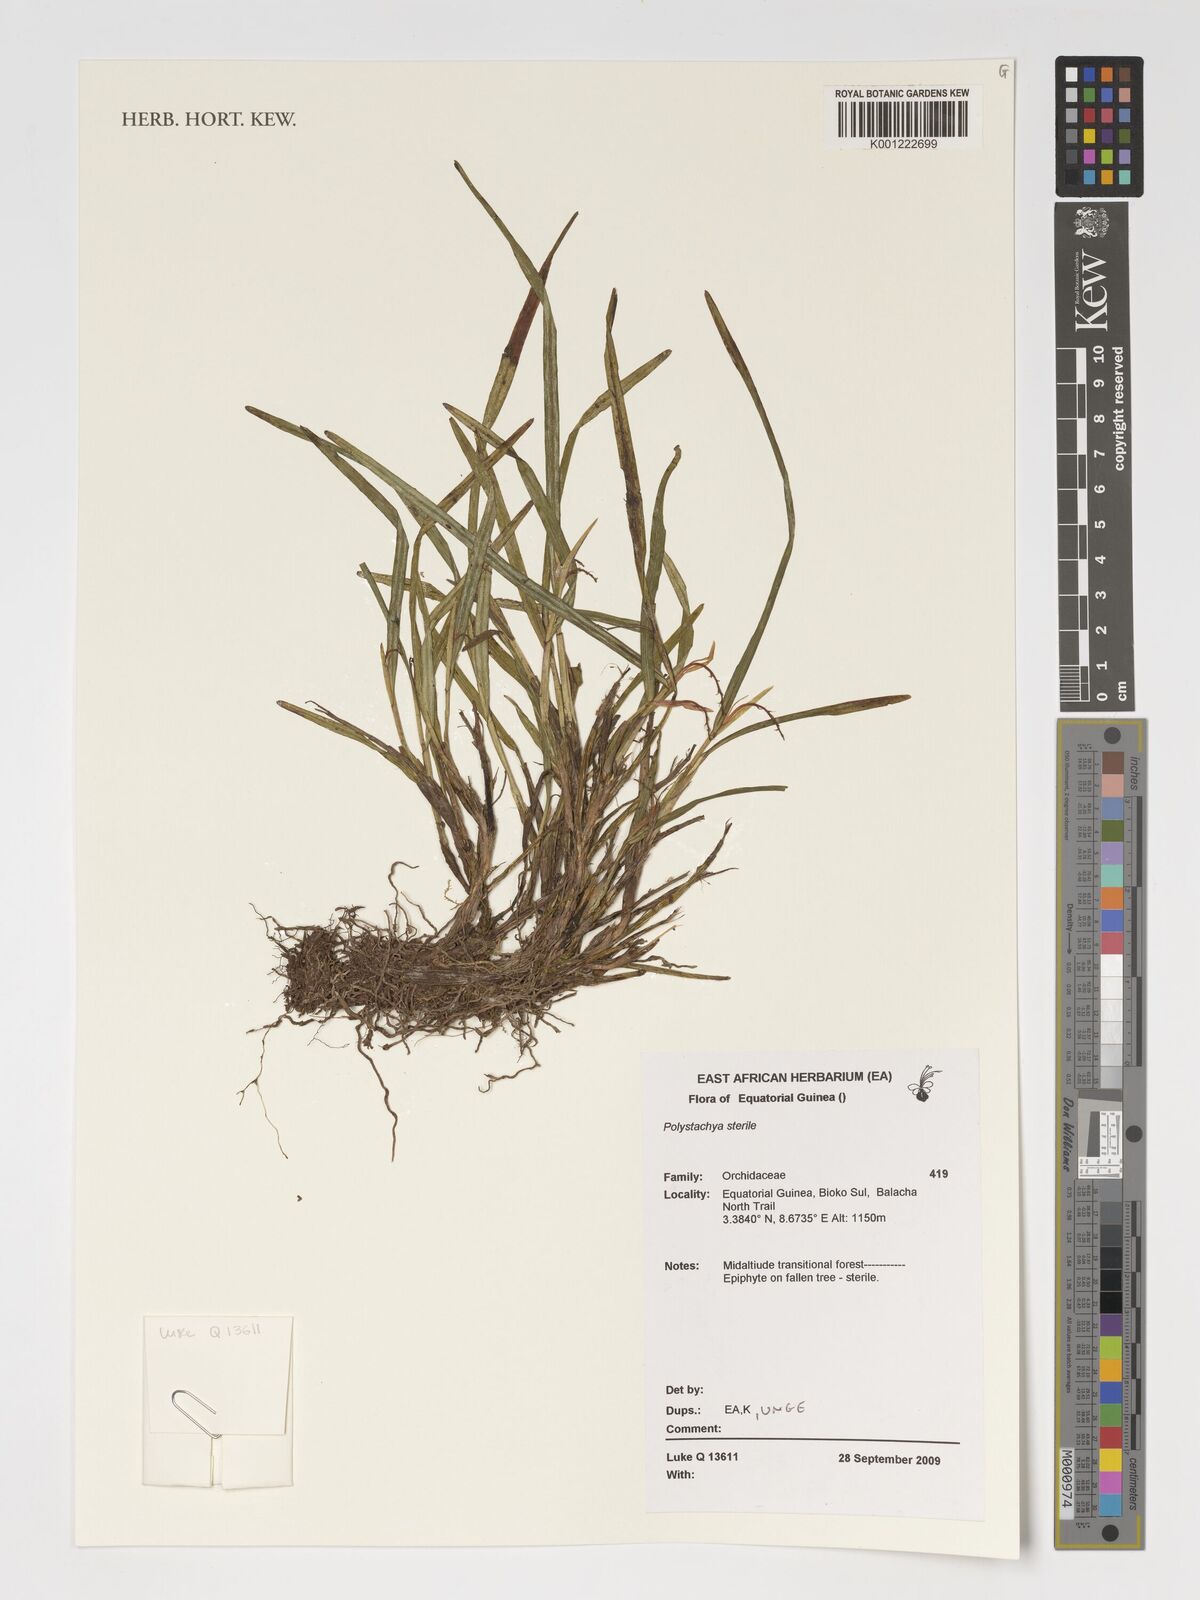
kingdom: Plantae
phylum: Tracheophyta
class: Liliopsida
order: Asparagales
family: Orchidaceae
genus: Polystachya
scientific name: Polystachya
